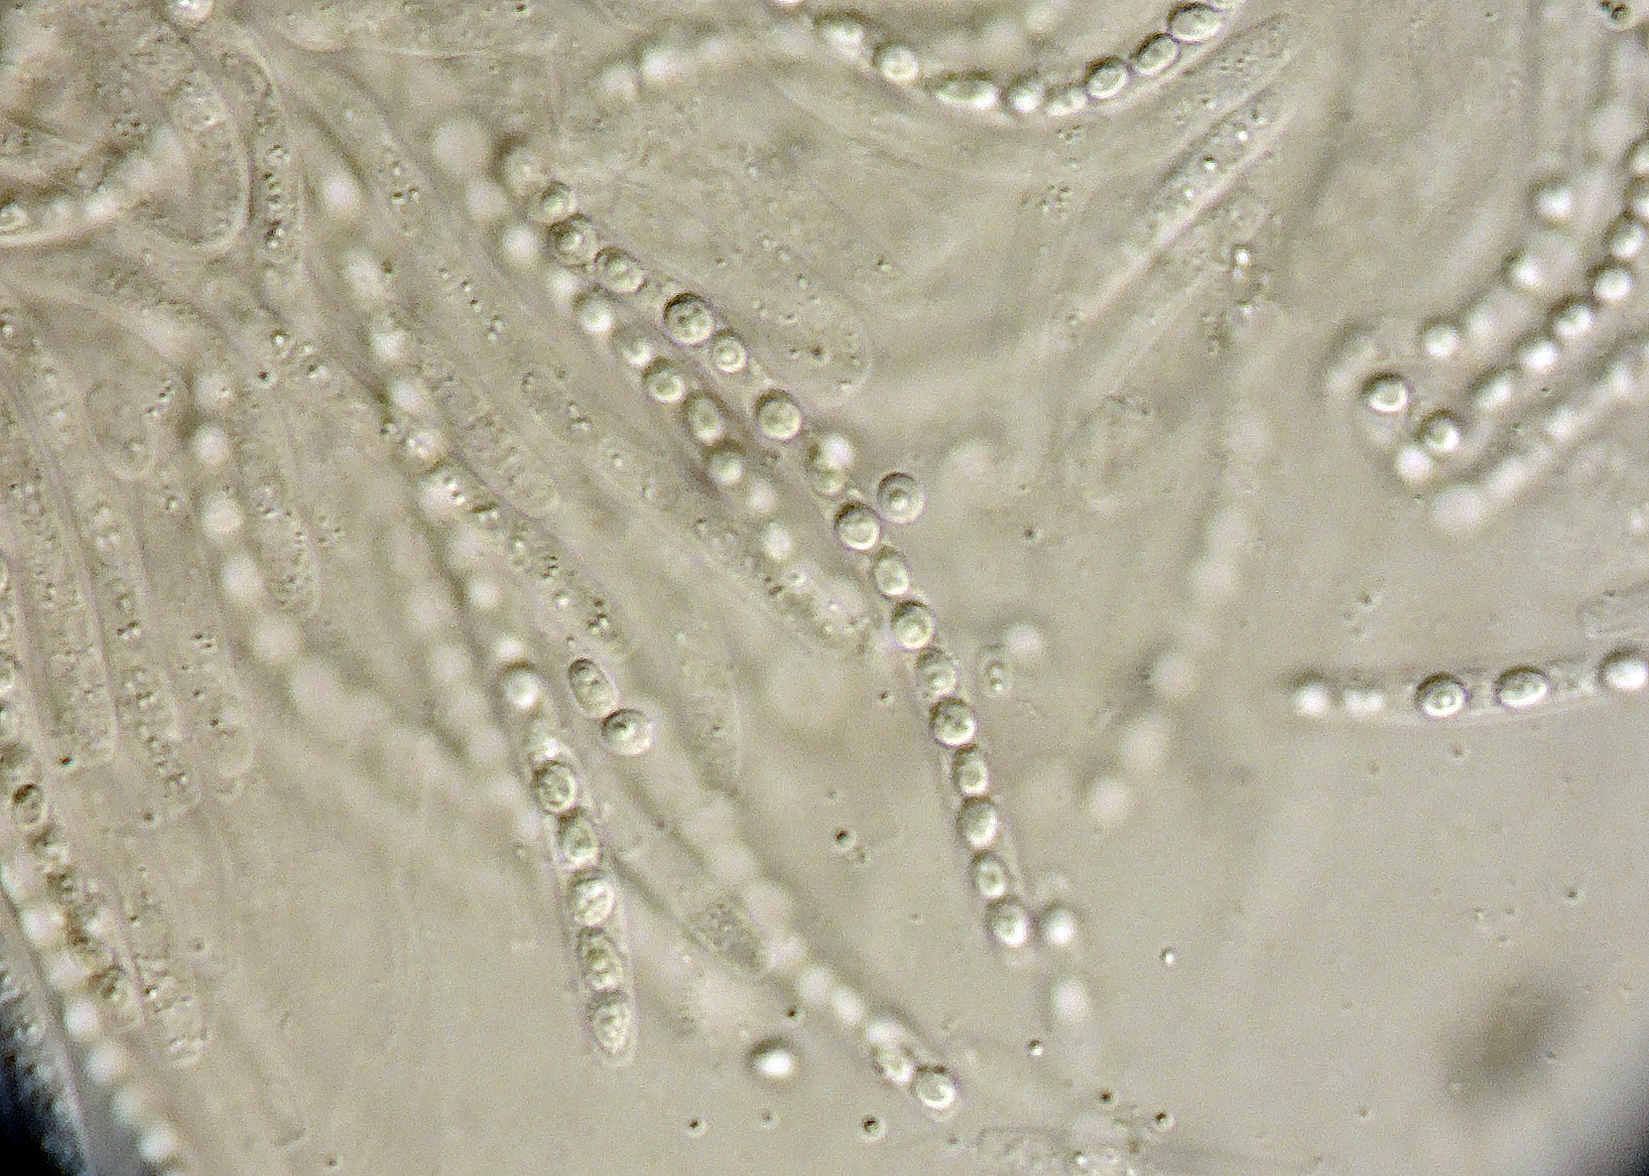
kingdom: Fungi
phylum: Ascomycota
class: Sordariomycetes
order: Hypocreales
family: Hypocreaceae
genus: Trichoderma
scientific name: Trichoderma
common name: kødkerne
